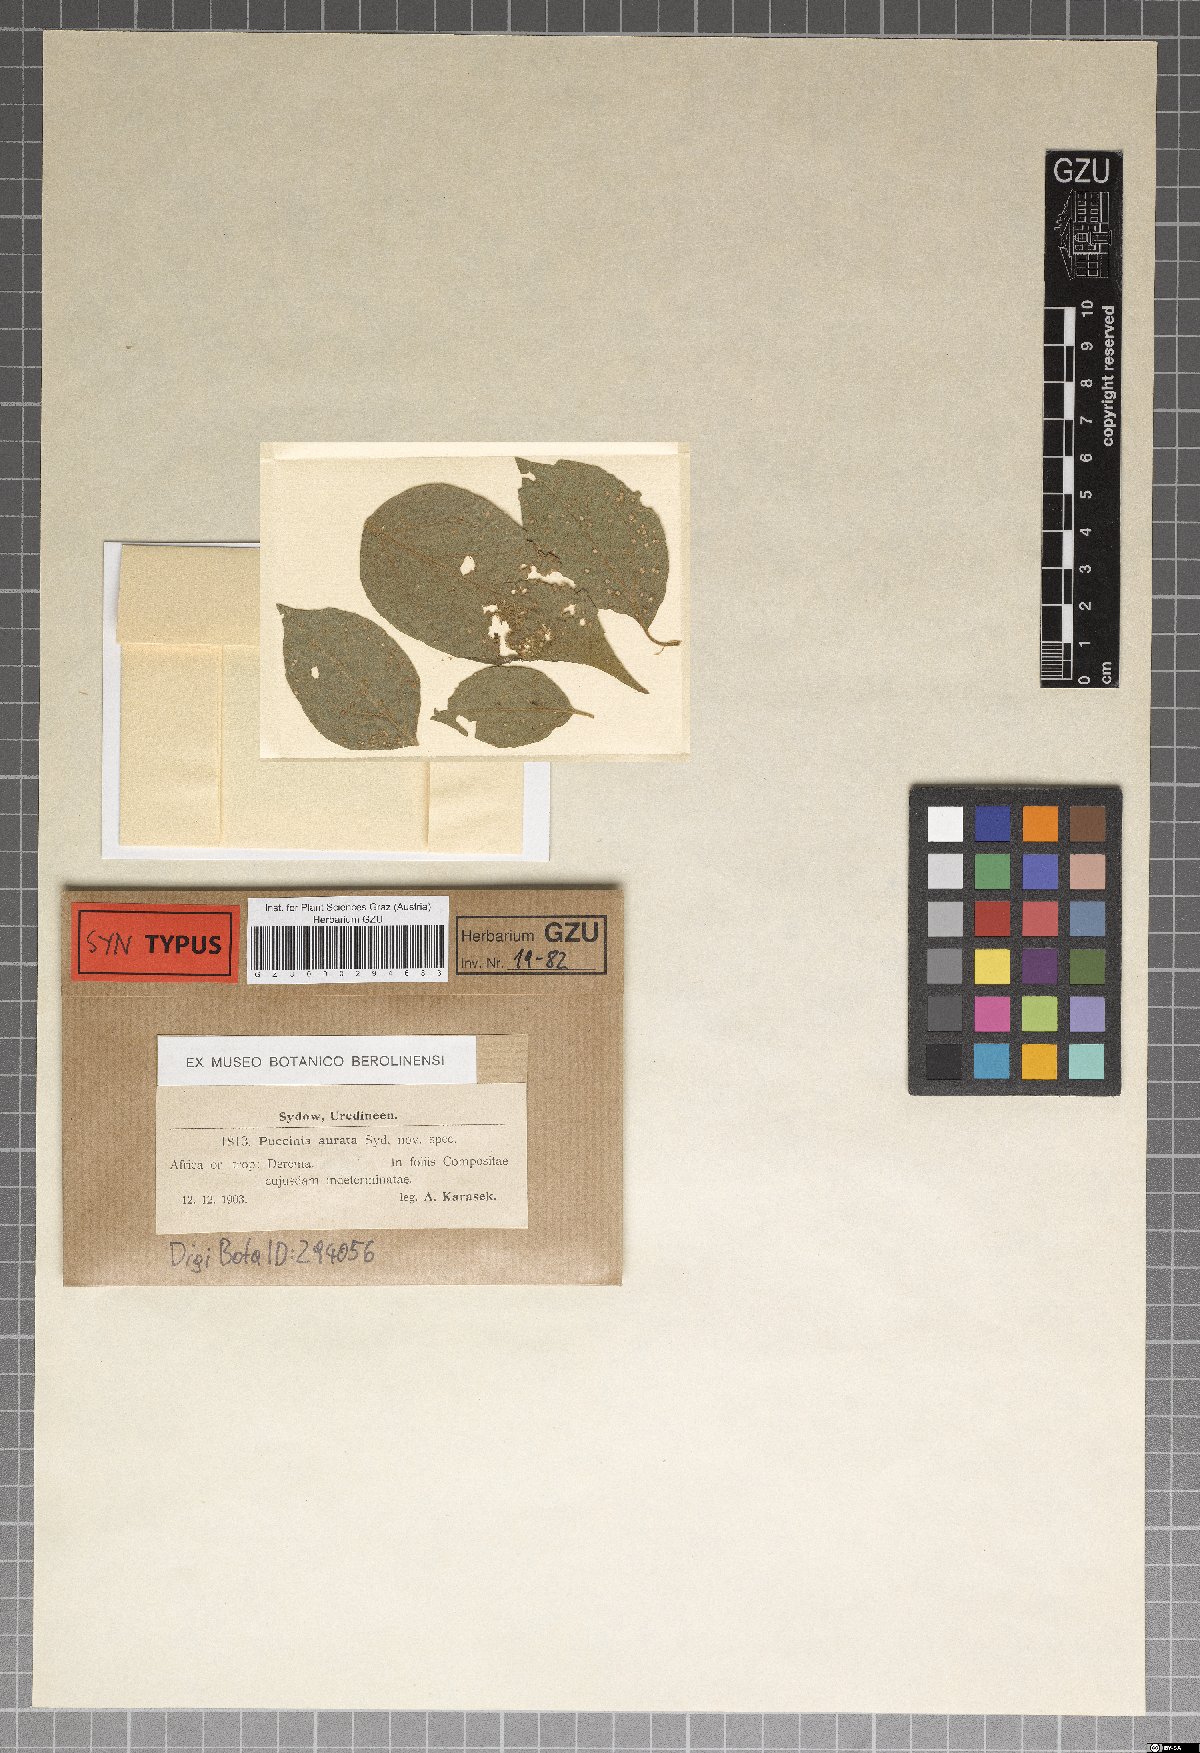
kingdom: Fungi
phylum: Basidiomycota
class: Pucciniomycetes
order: Pucciniales
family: Pucciniaceae
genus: Puccinia
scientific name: Puccinia aurata
